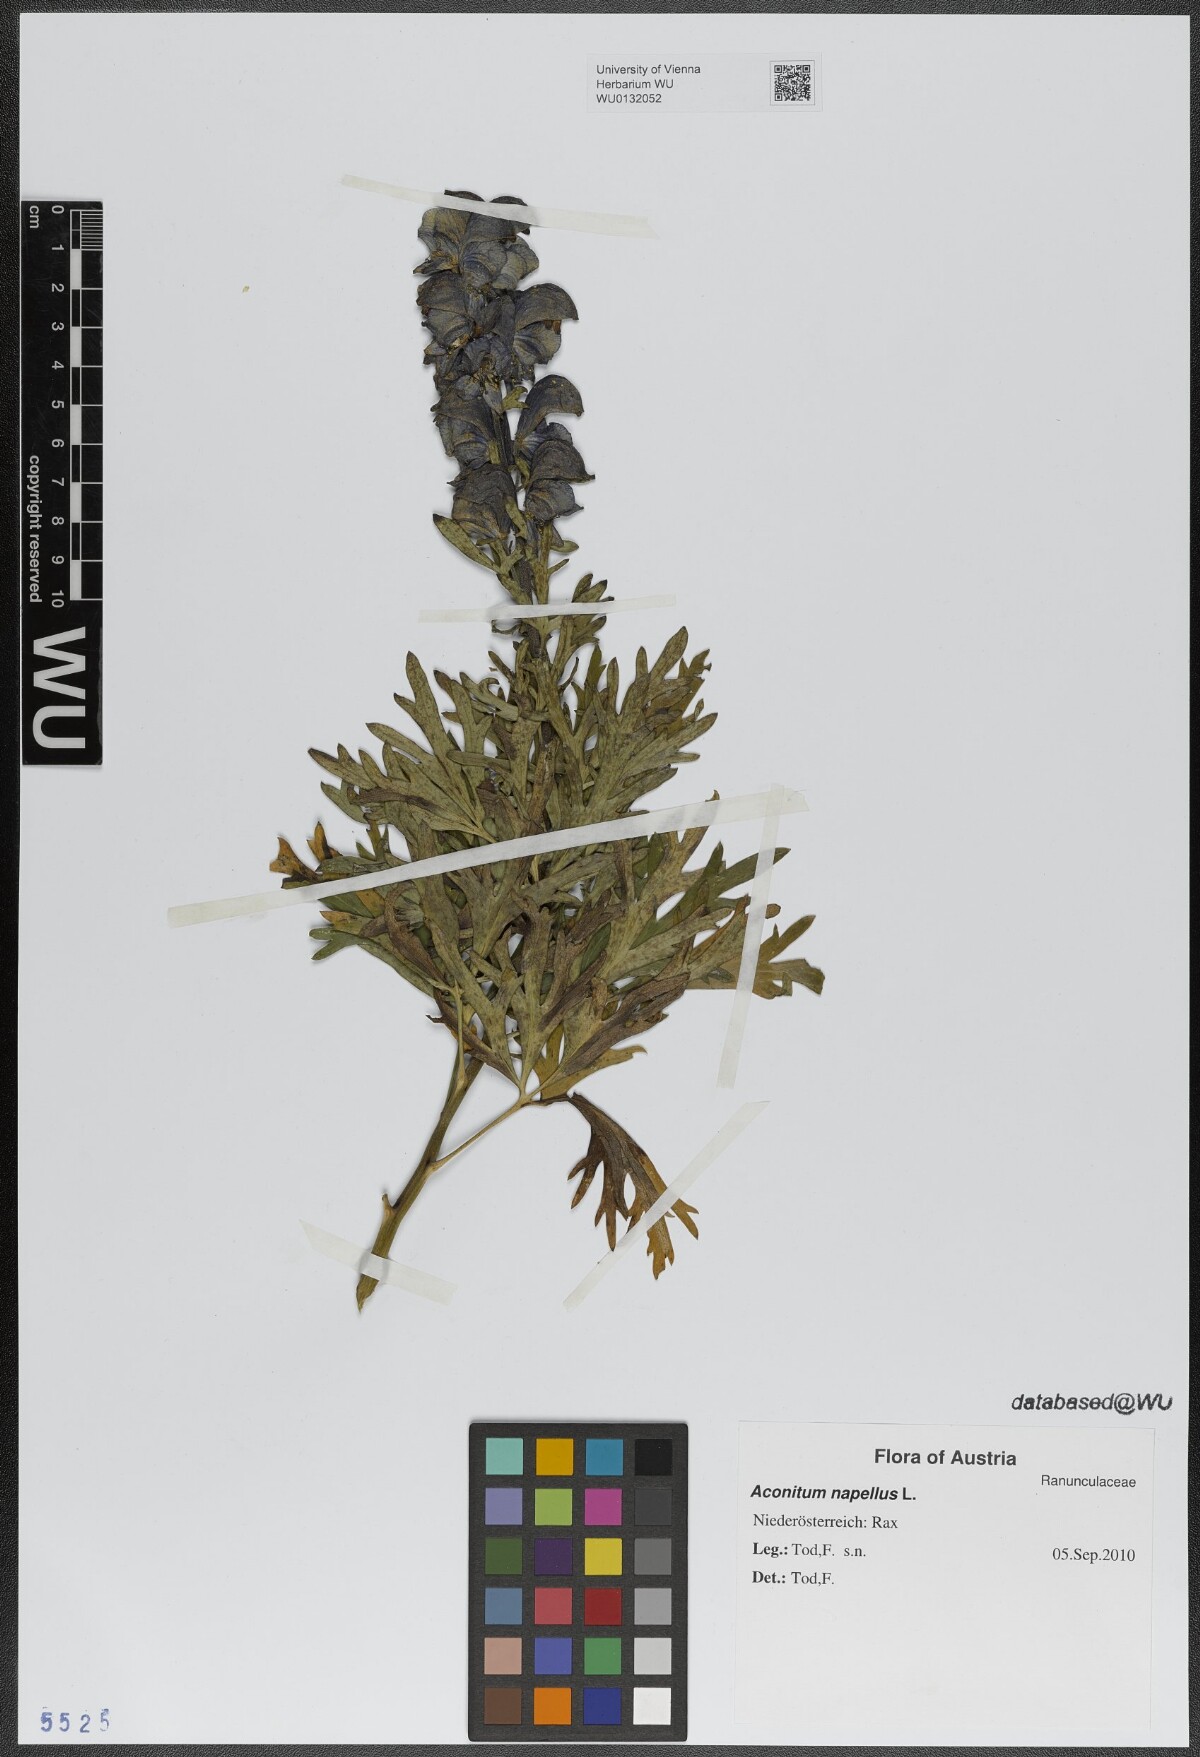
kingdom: Plantae
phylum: Tracheophyta
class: Magnoliopsida
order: Ranunculales
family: Ranunculaceae
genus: Aconitum
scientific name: Aconitum napellus
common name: Garden monkshood
